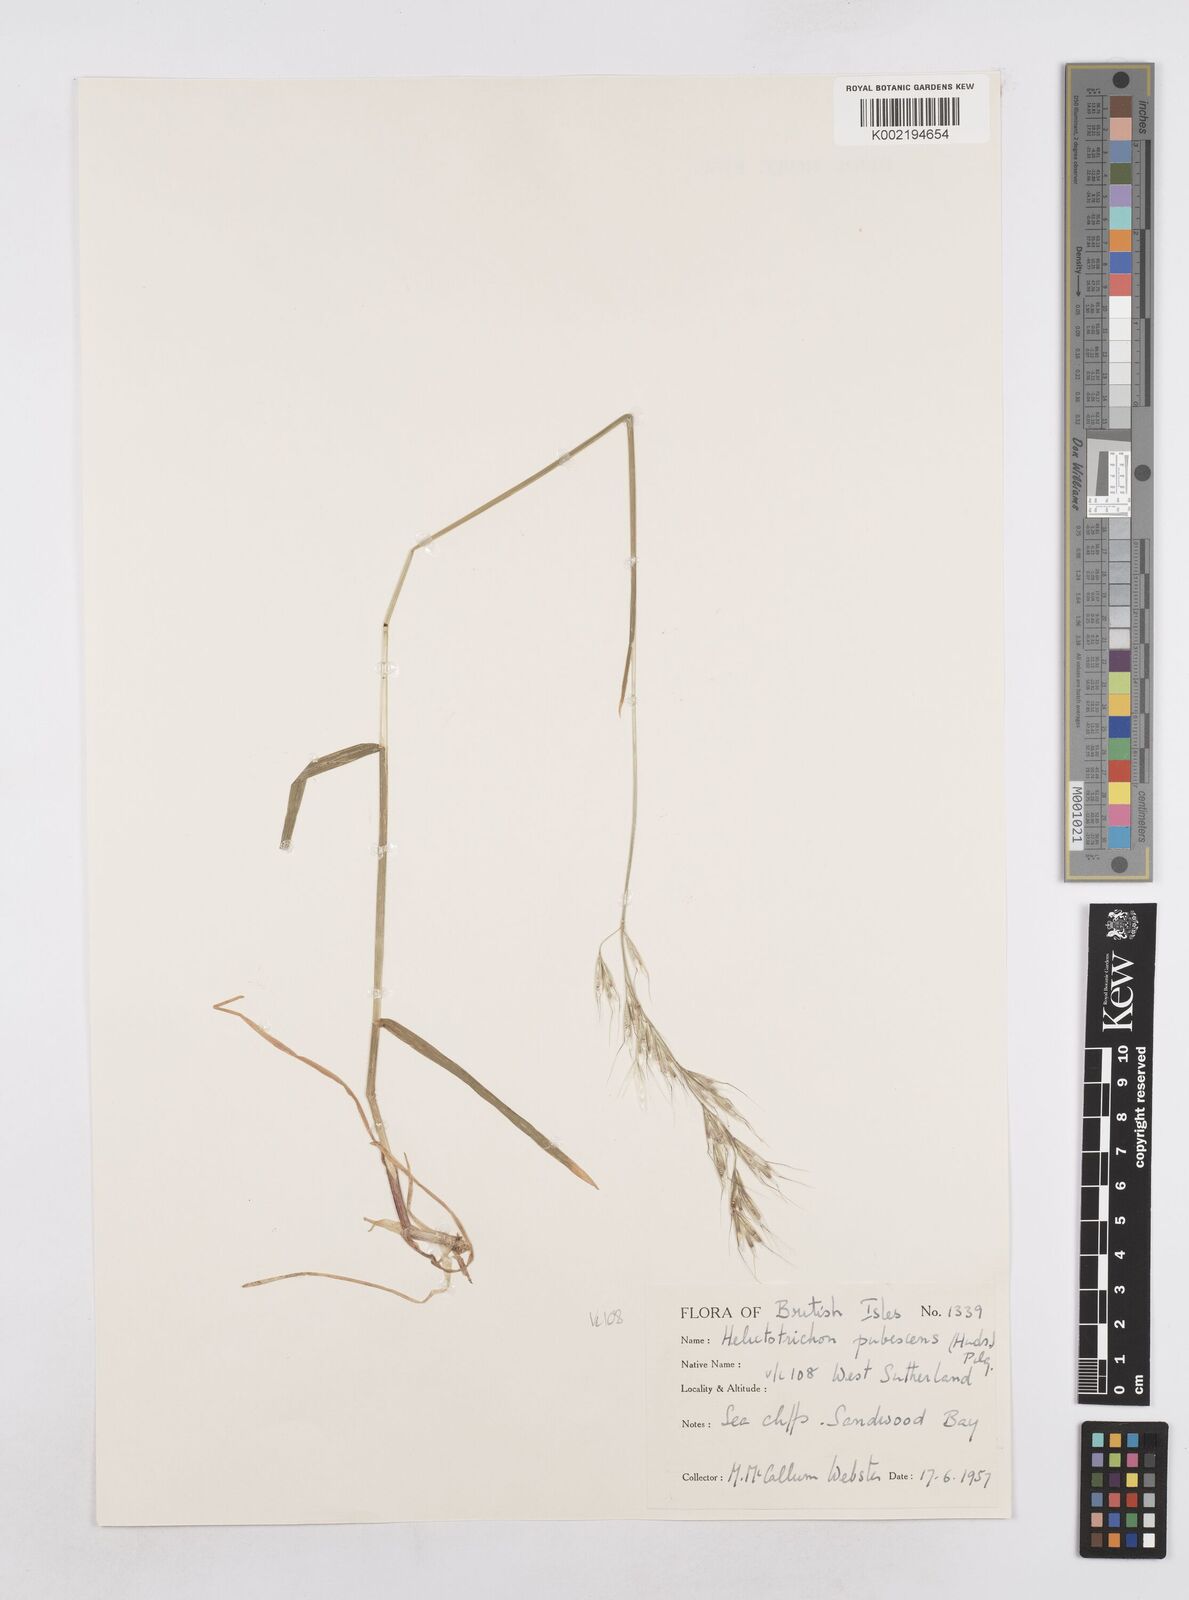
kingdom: Plantae
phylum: Tracheophyta
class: Liliopsida
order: Poales
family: Poaceae
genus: Avenula
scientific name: Avenula pubescens
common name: Downy alpine oatgrass
